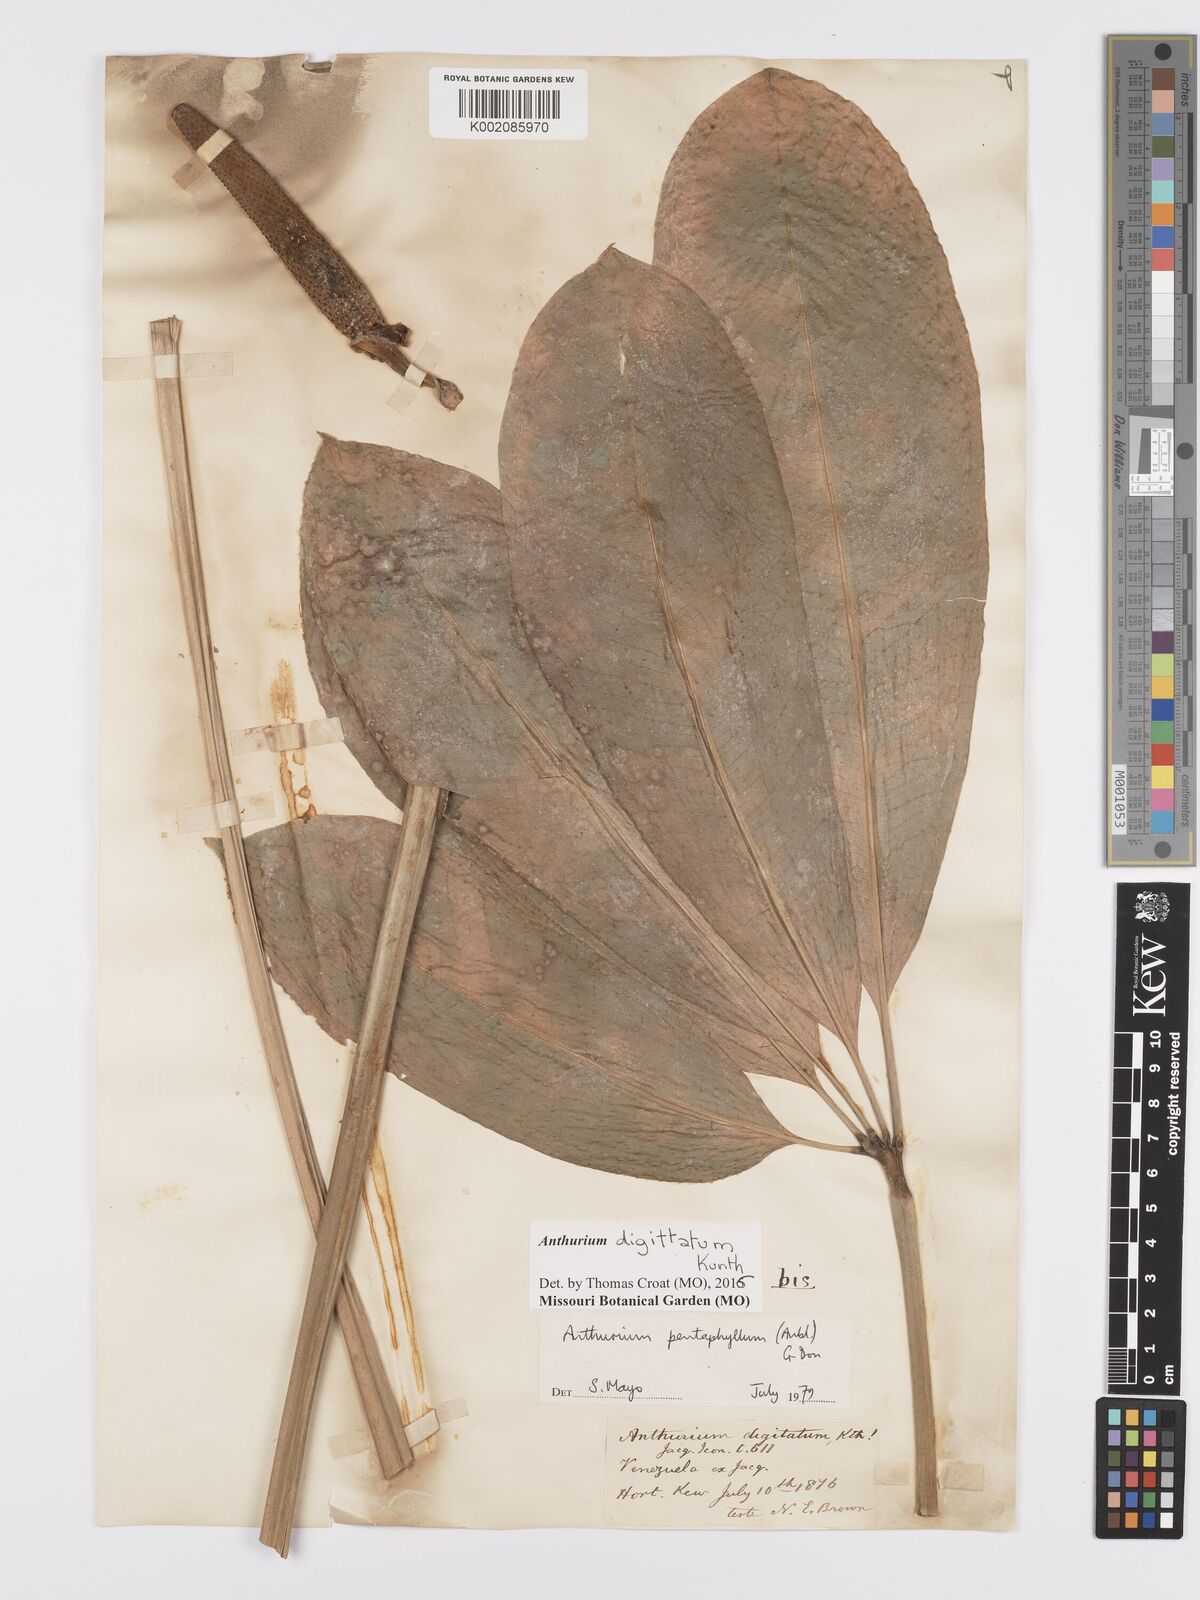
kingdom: Plantae
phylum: Tracheophyta
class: Liliopsida
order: Alismatales
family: Araceae
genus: Anthurium
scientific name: Anthurium digitatum
